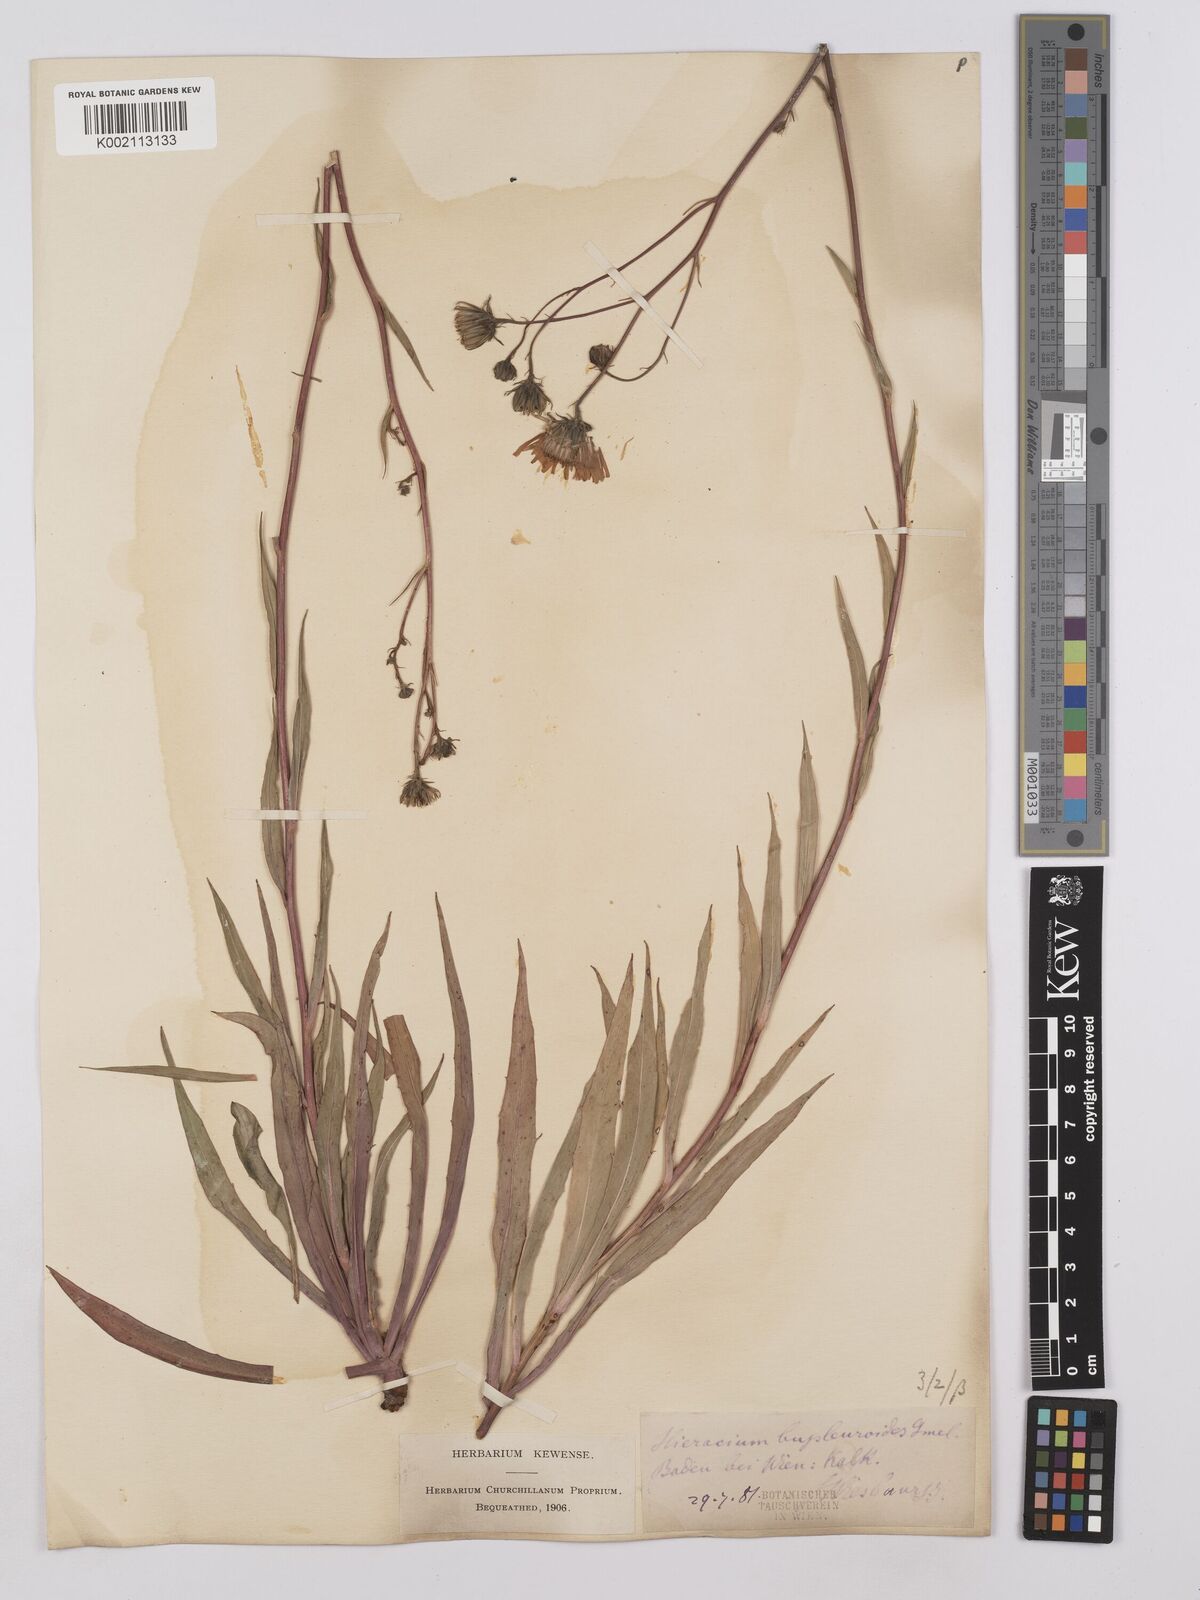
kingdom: Plantae
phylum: Tracheophyta
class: Magnoliopsida
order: Asterales
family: Asteraceae
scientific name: Asteraceae
